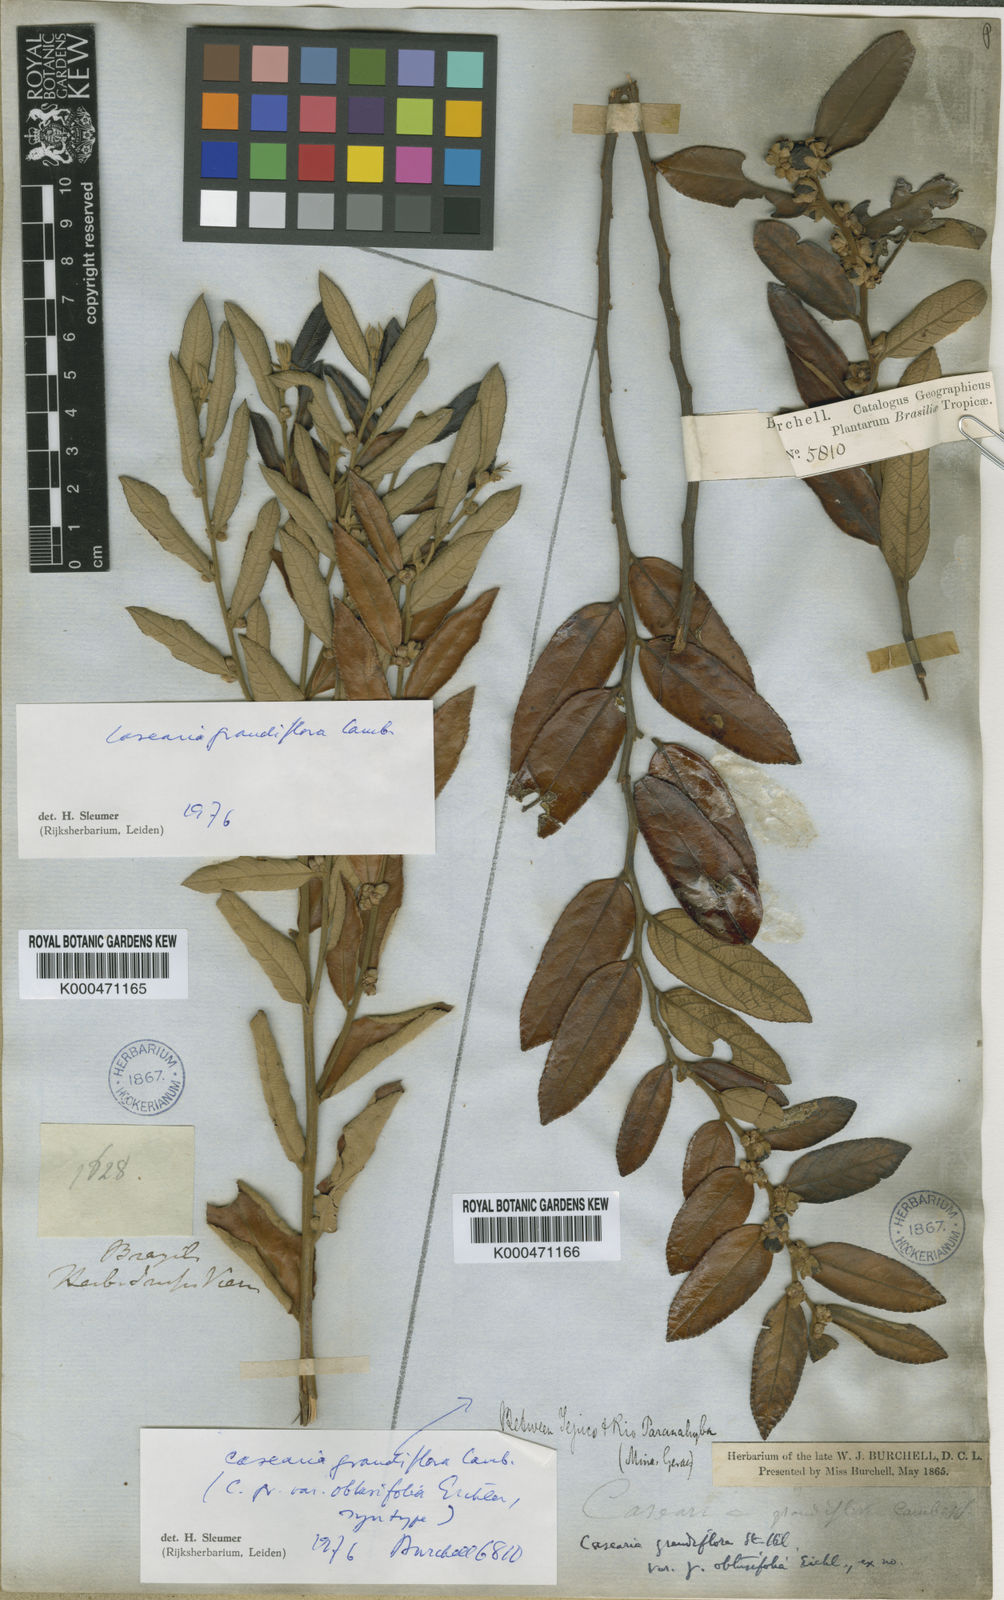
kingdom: Plantae
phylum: Tracheophyta
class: Magnoliopsida
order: Malpighiales
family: Salicaceae
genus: Casearia
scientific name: Casearia grandiflora
